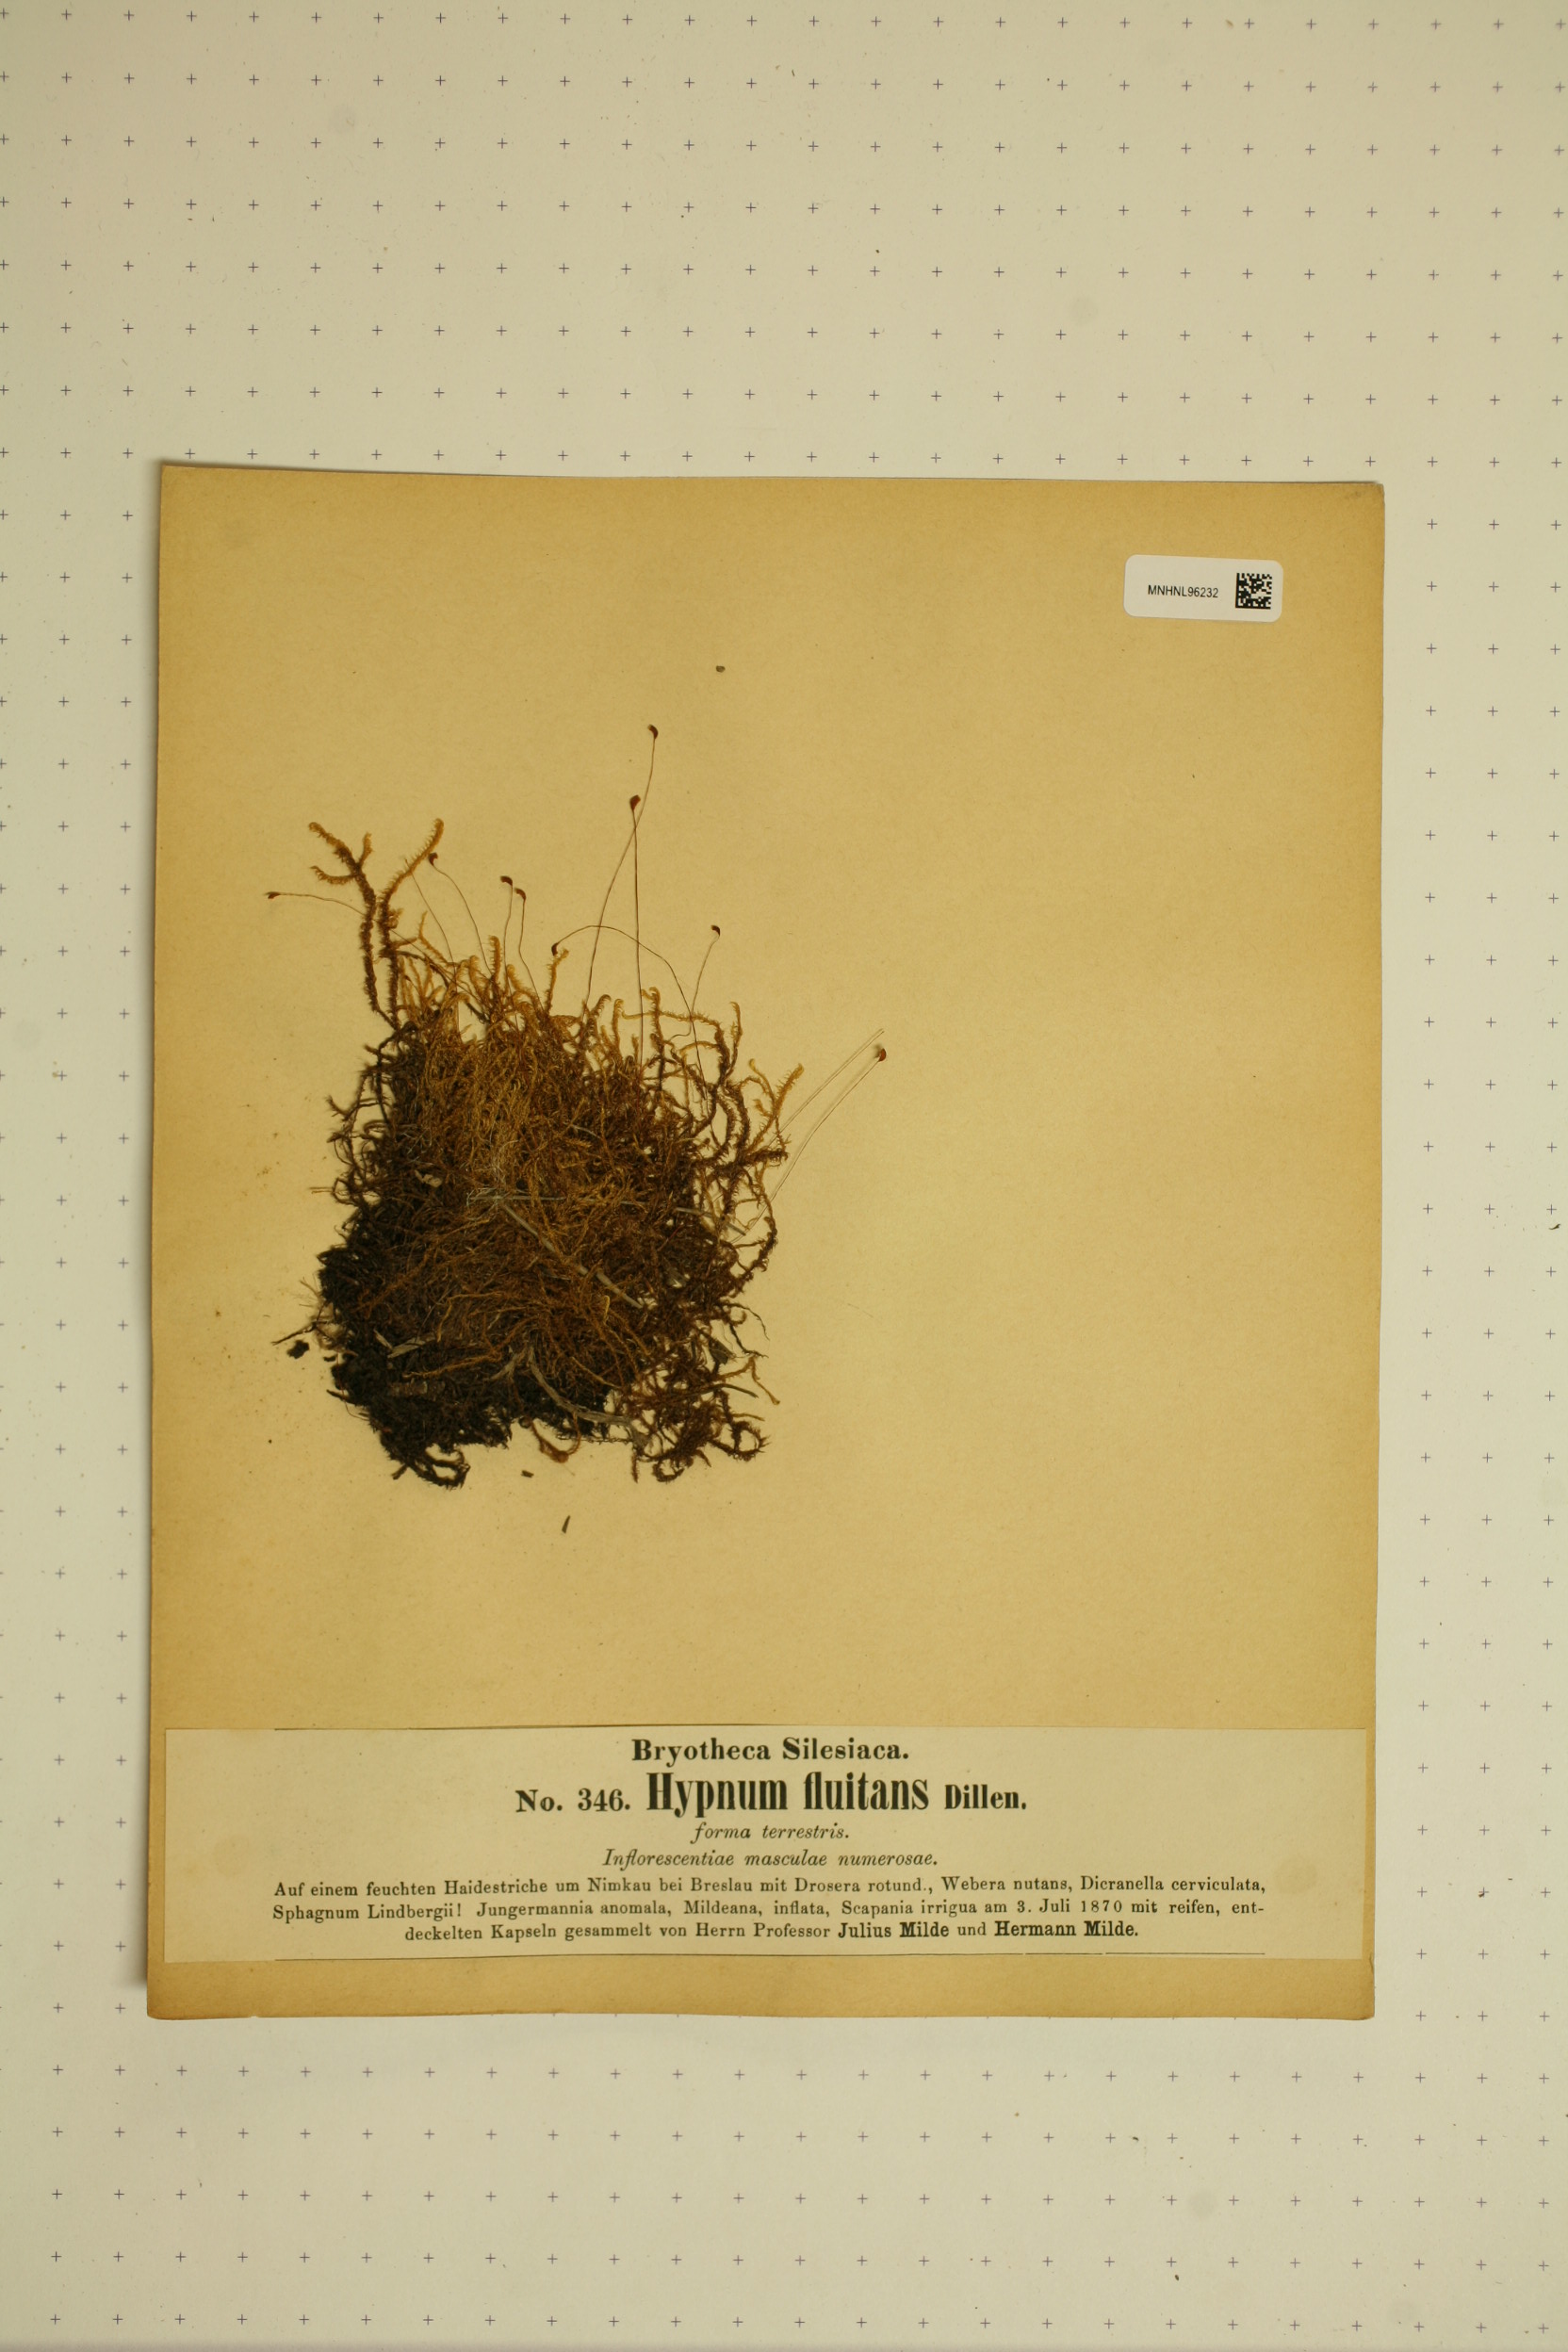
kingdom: Plantae
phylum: Bryophyta
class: Bryopsida
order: Hypnales
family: Calliergonaceae
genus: Warnstorfia
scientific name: Warnstorfia fluitans
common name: Floating hook moss
